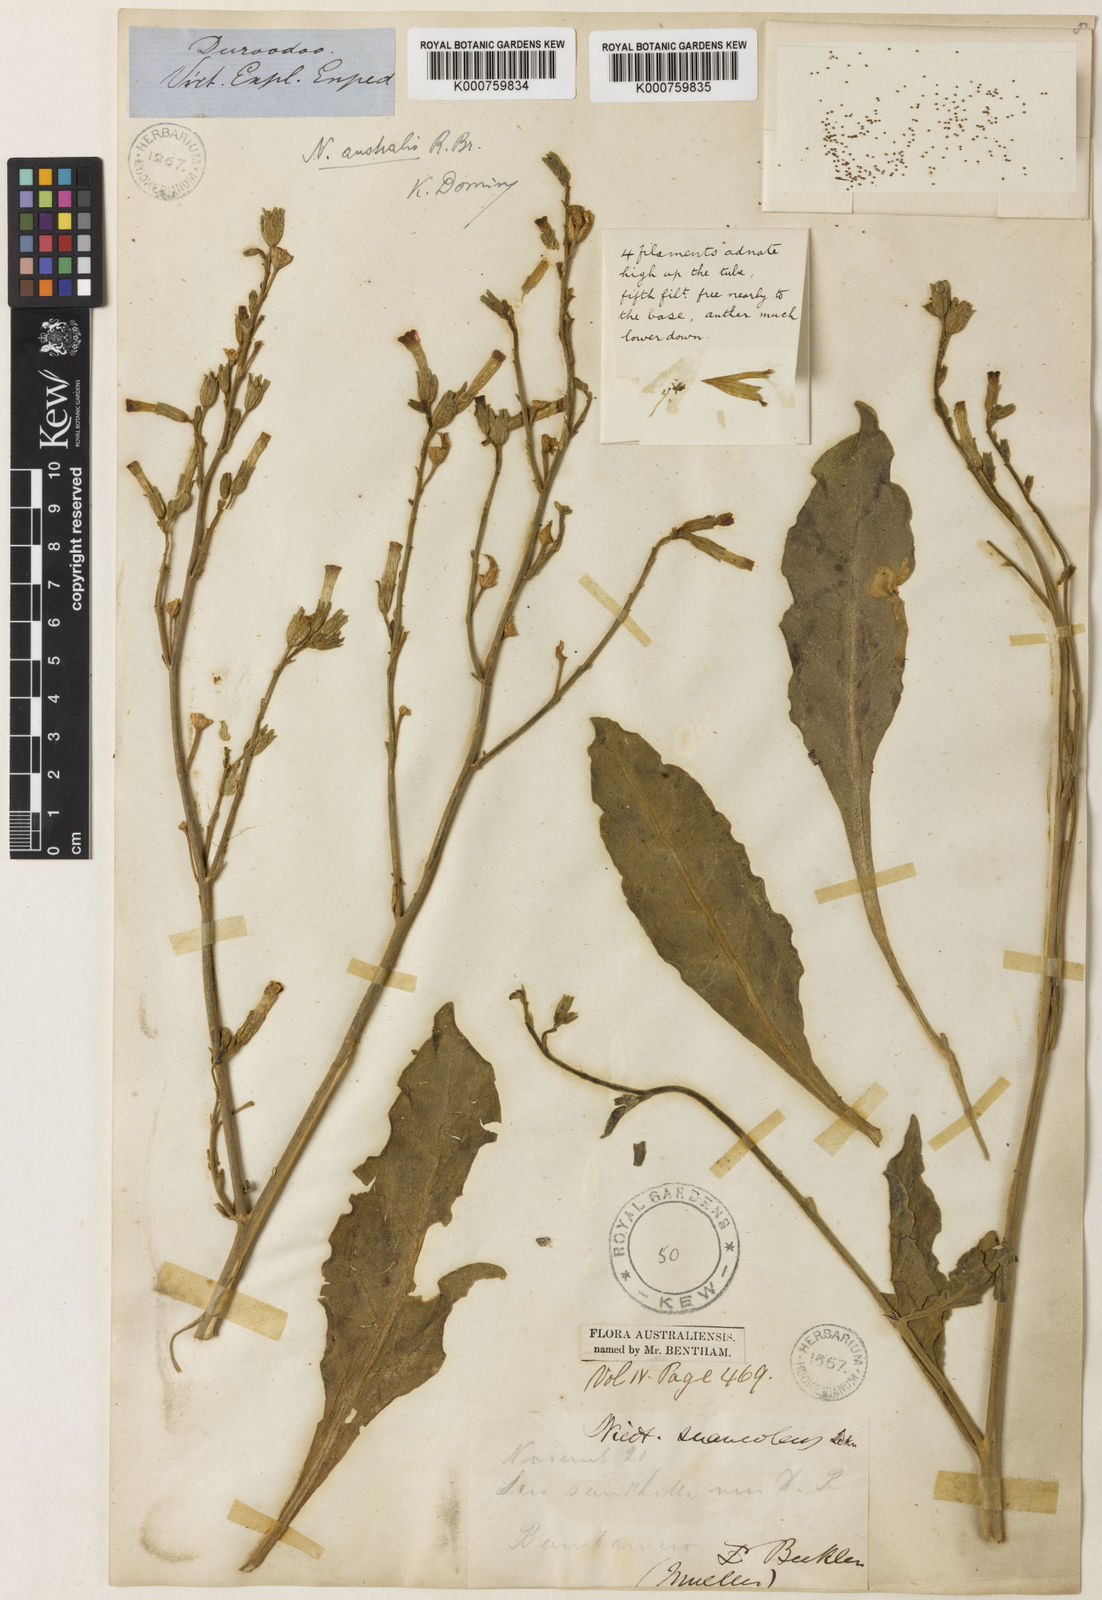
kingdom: Plantae
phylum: Tracheophyta
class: Magnoliopsida
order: Solanales
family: Solanaceae
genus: Nicotiana
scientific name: Nicotiana rotundifolia
